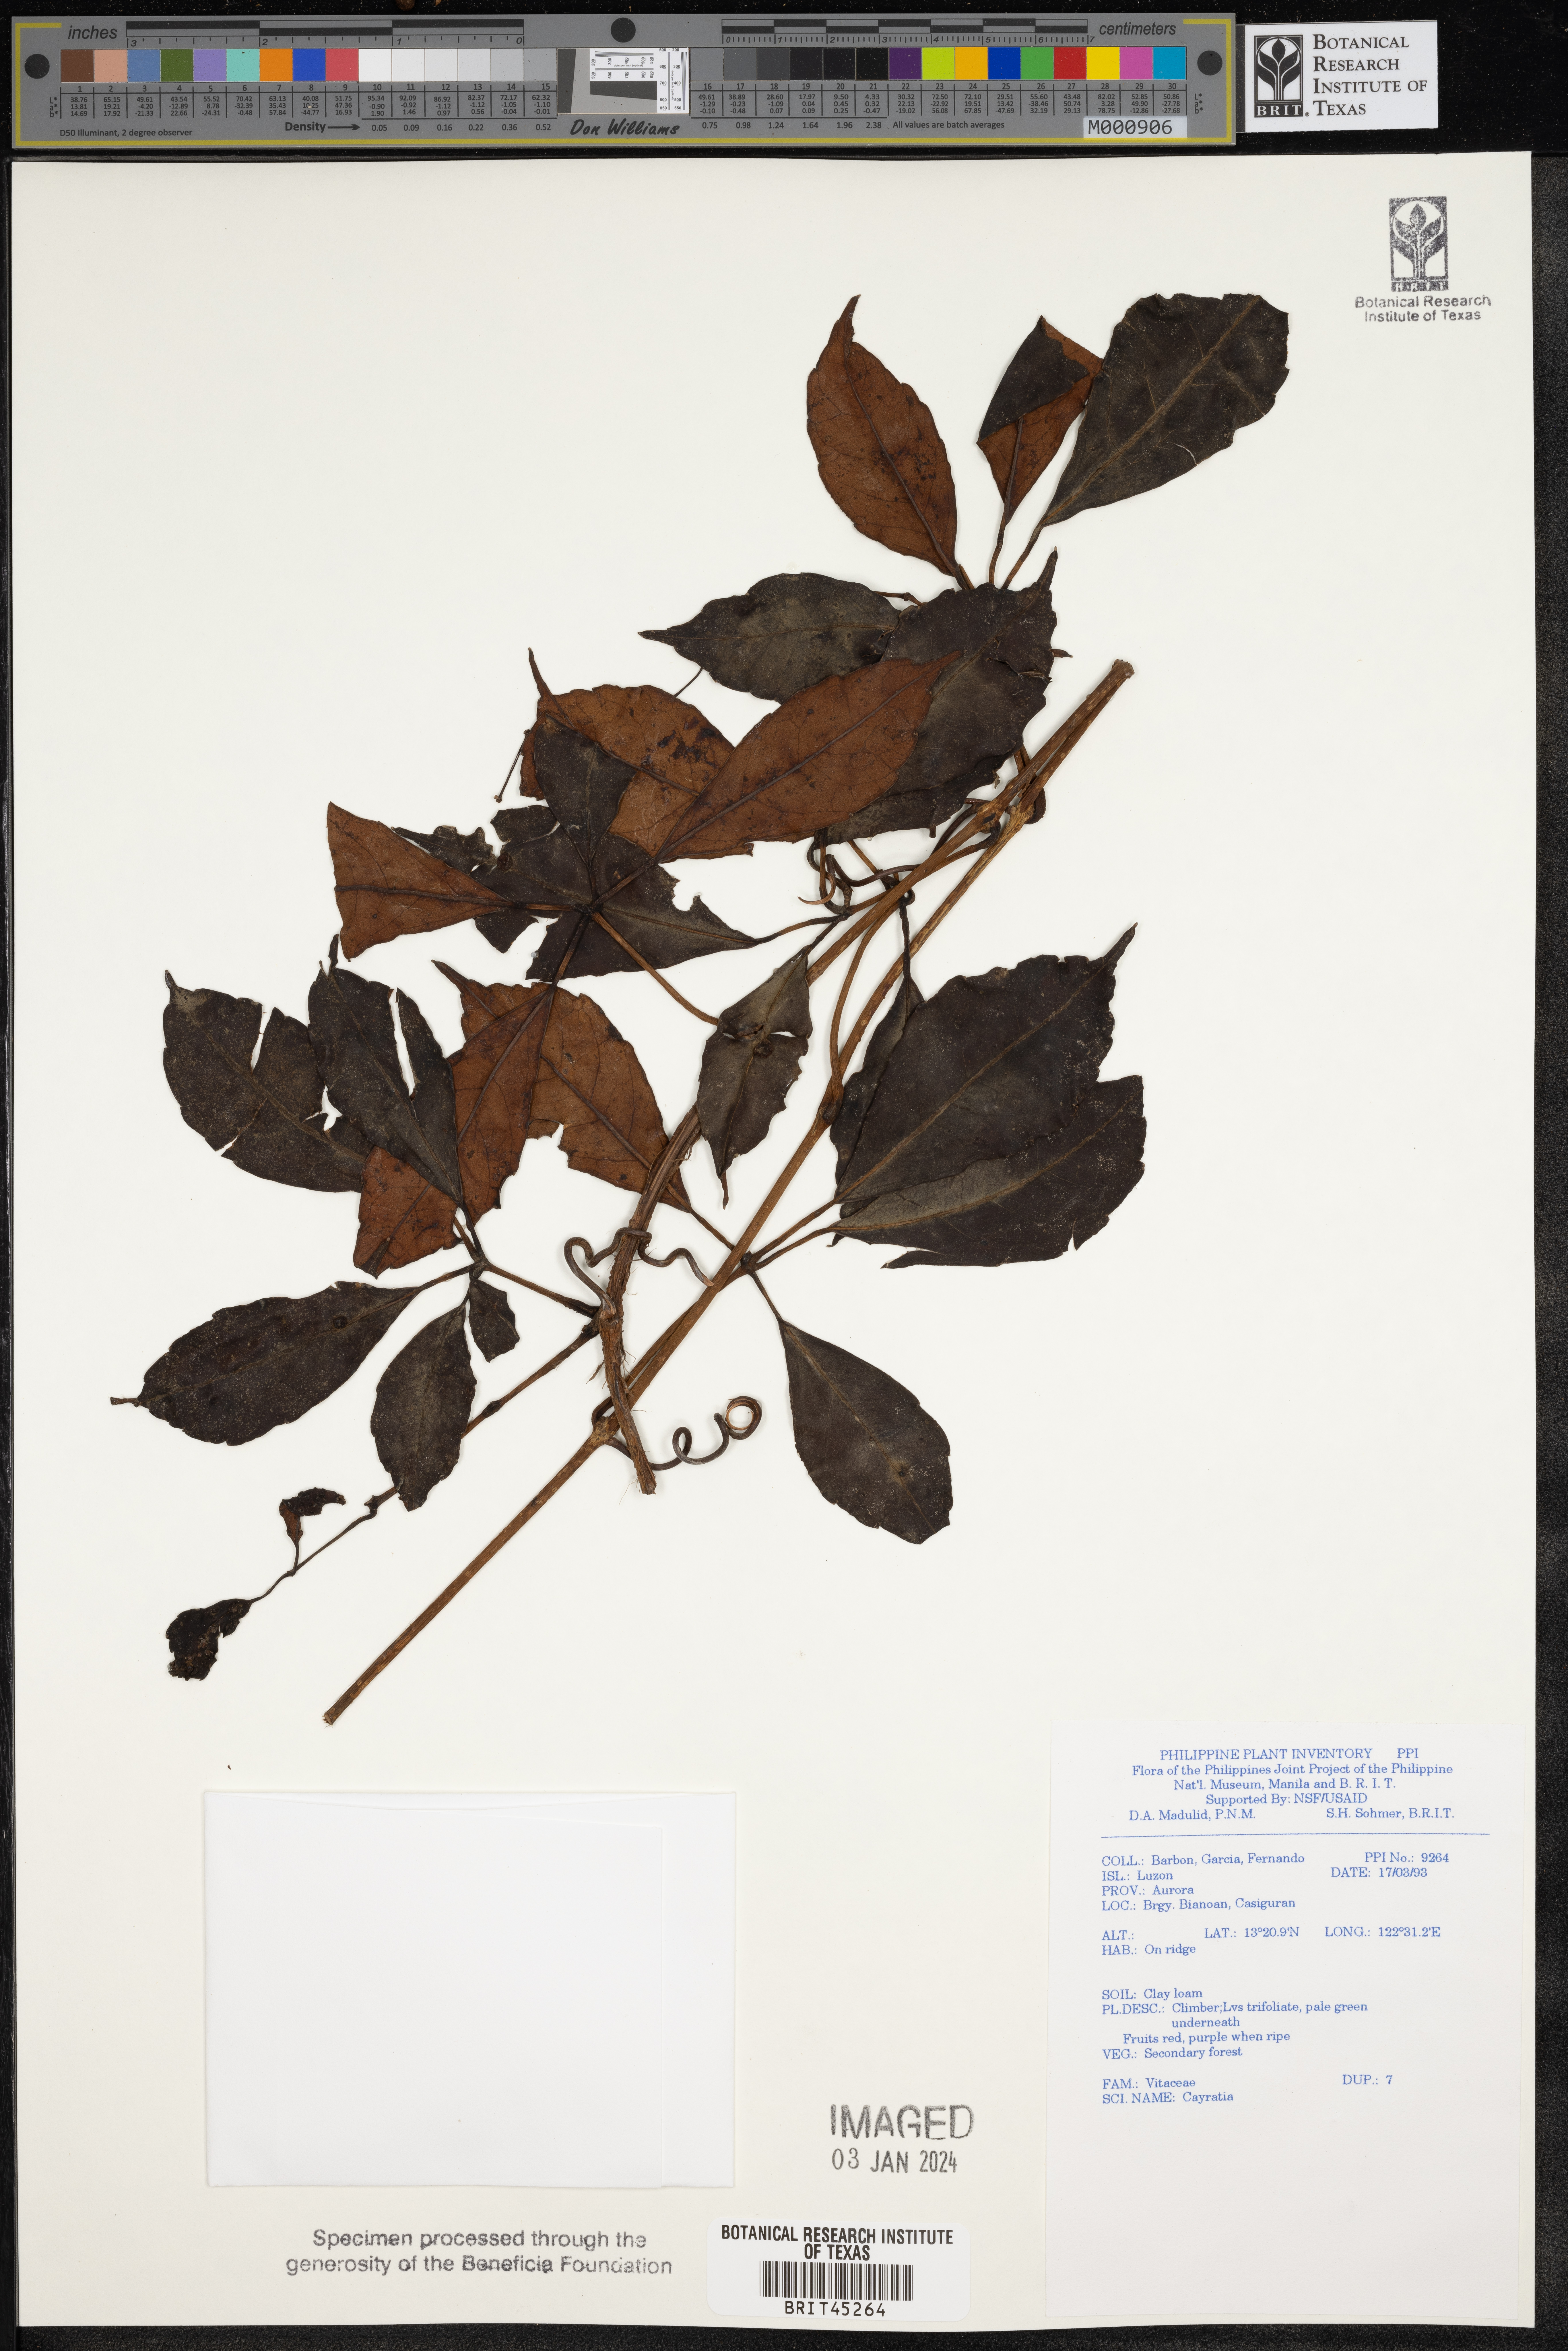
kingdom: Plantae
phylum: Tracheophyta
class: Magnoliopsida
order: Vitales
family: Vitaceae
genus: Cayratia
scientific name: Cayratia
